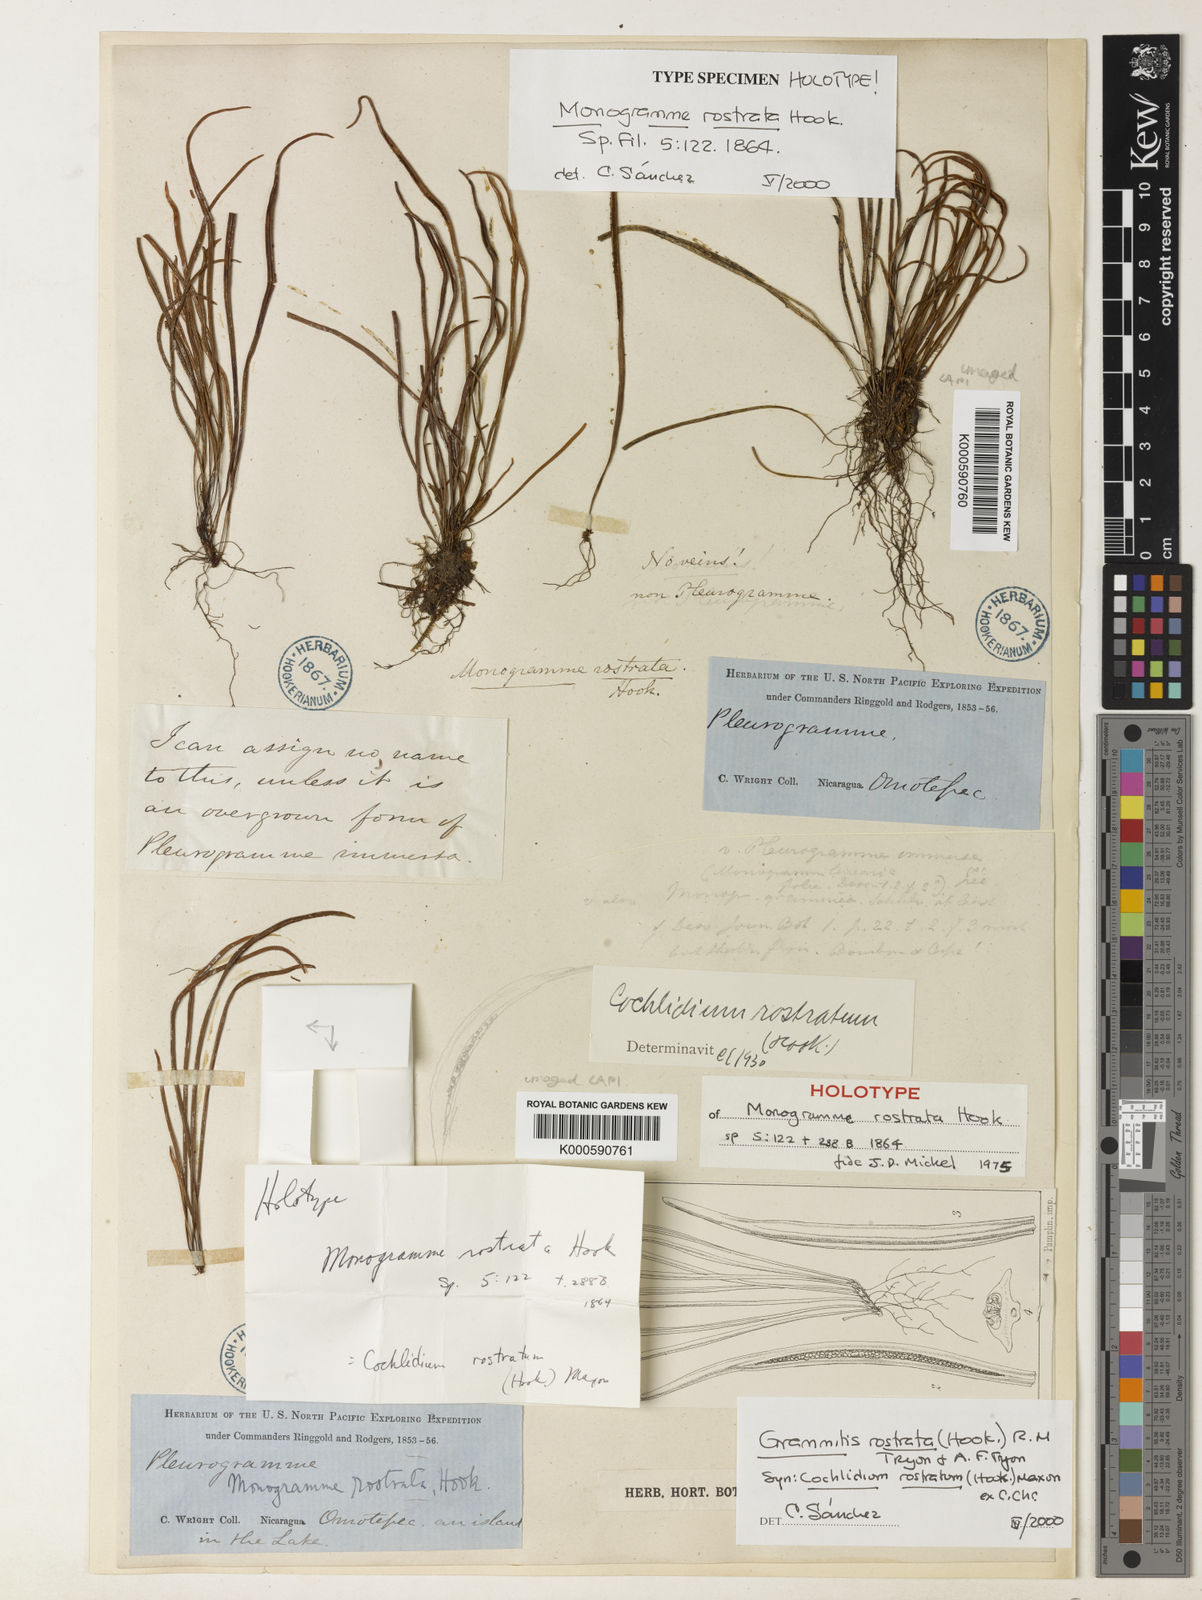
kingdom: Plantae
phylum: Tracheophyta
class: Polypodiopsida
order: Polypodiales
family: Polypodiaceae
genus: Cochlidium
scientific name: Cochlidium seminudum
